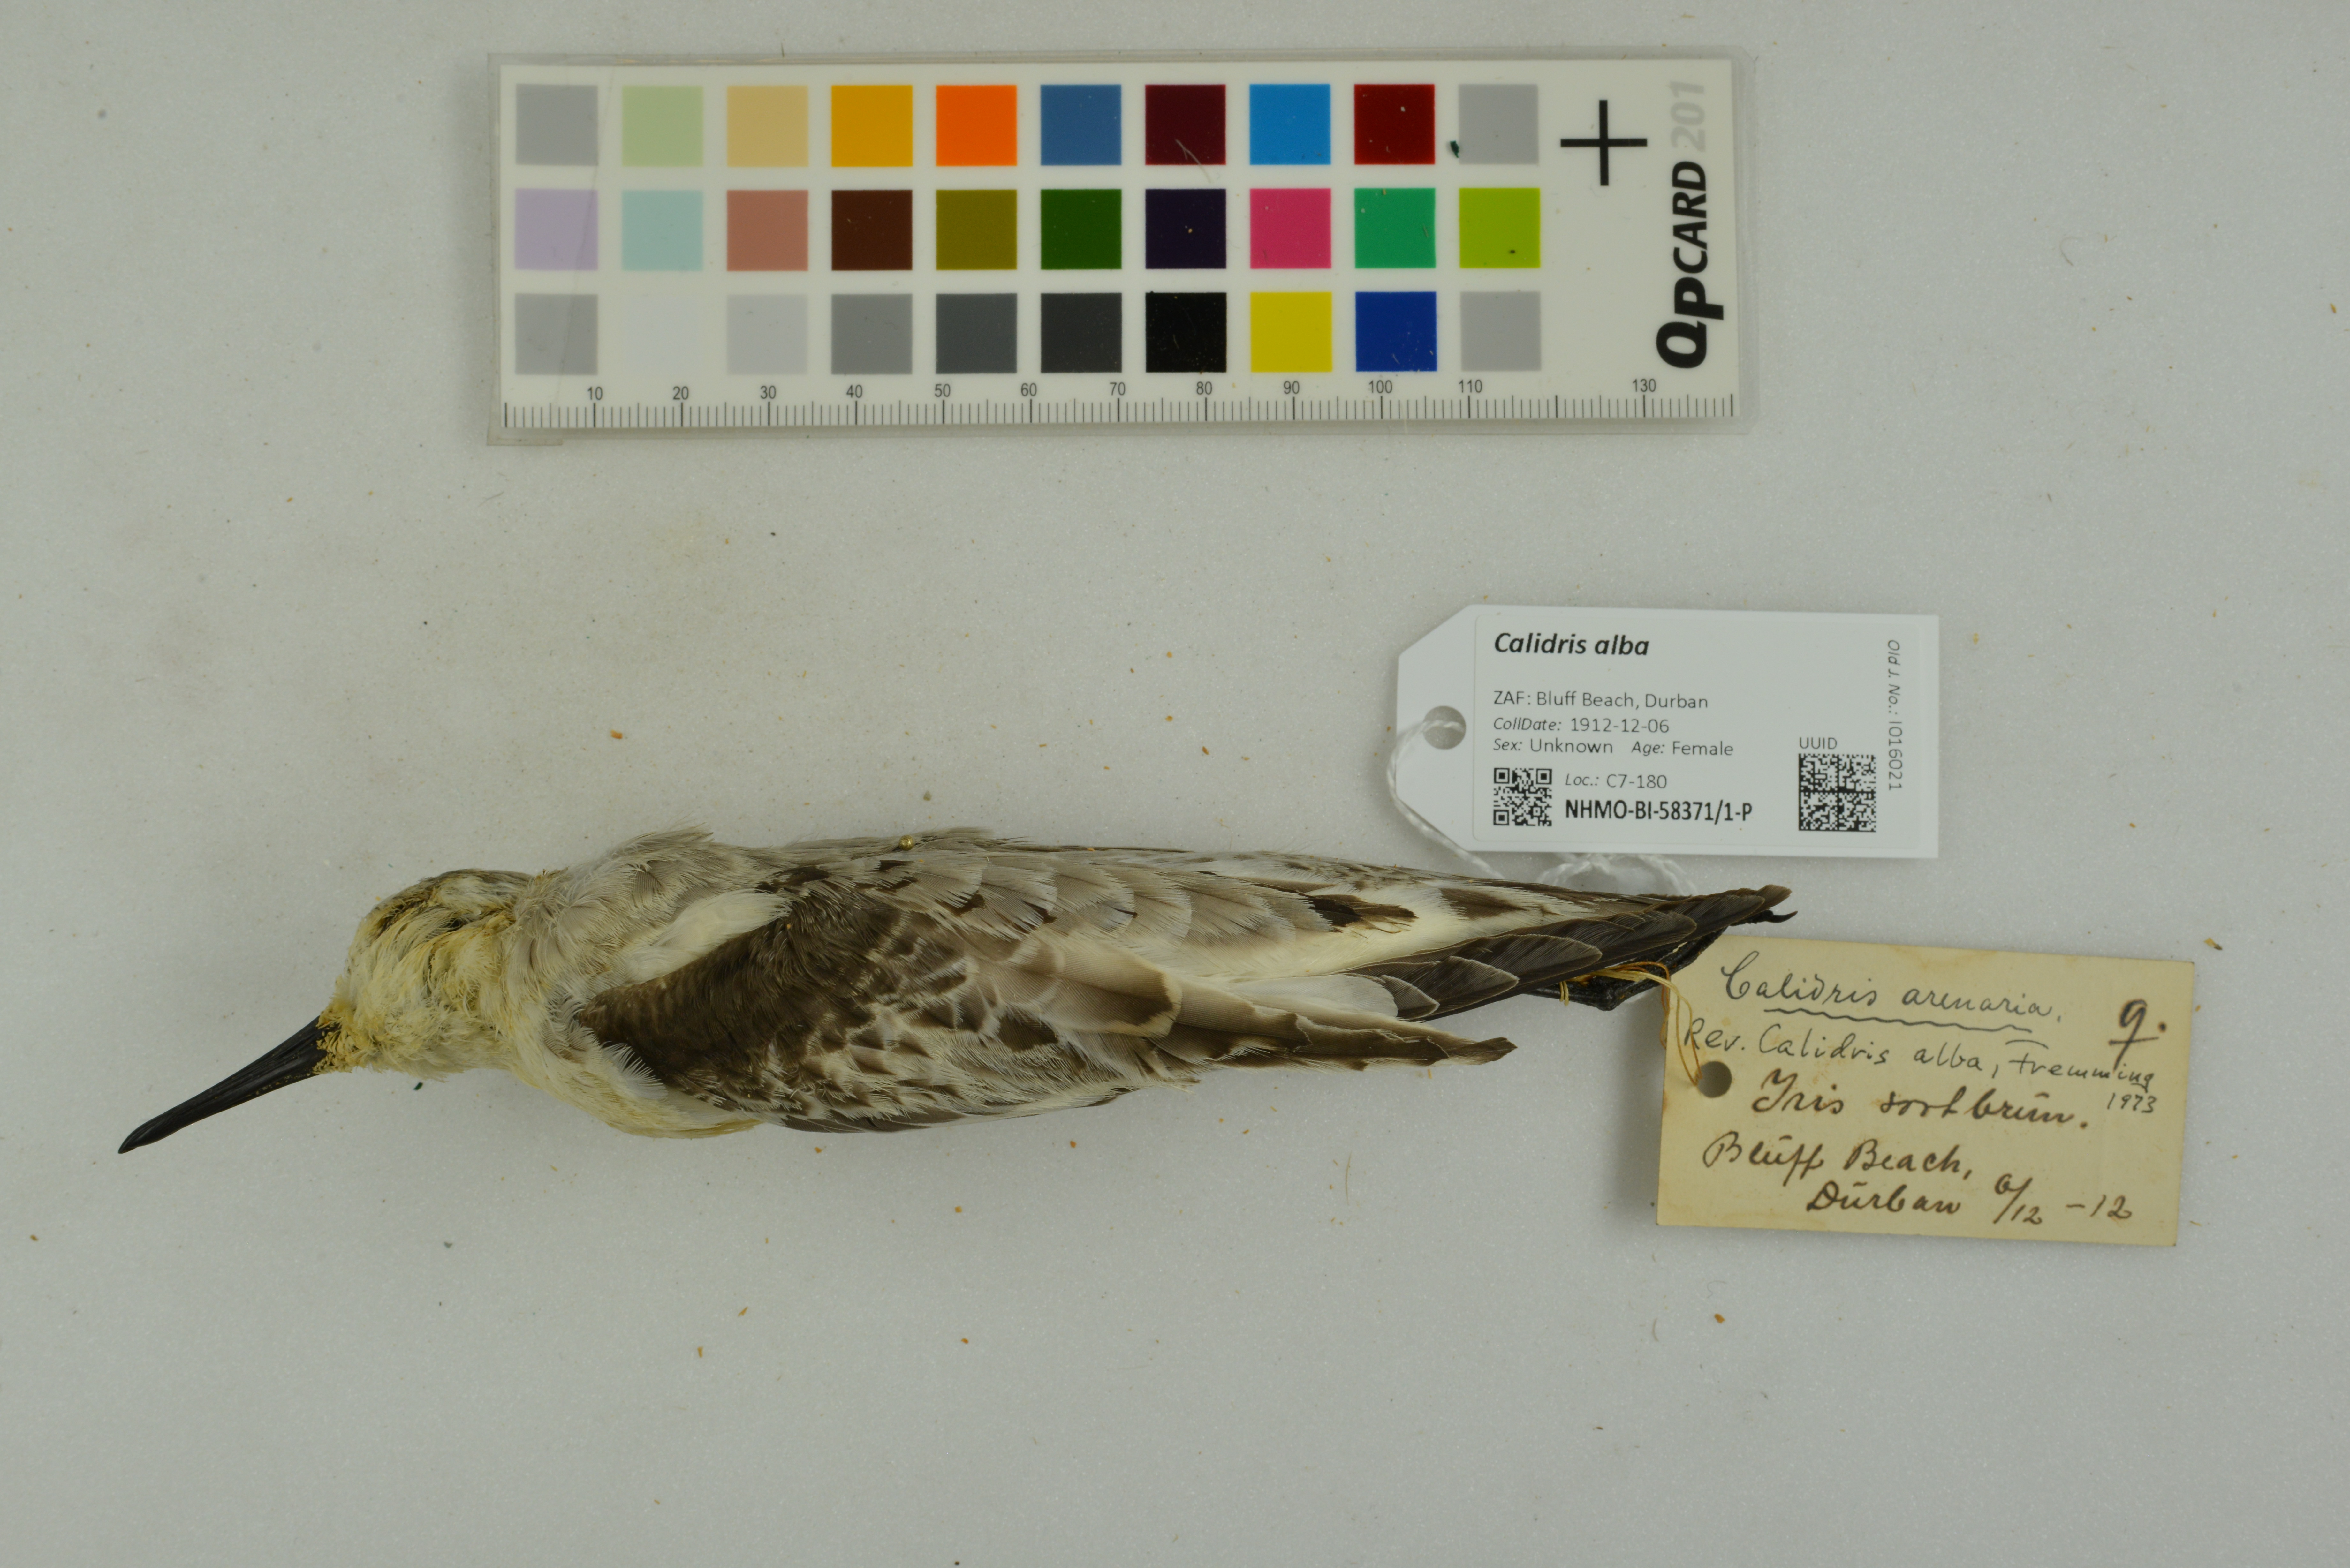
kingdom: Animalia
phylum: Chordata
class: Aves
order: Charadriiformes
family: Scolopacidae
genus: Calidris
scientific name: Calidris alba
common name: Sanderling
